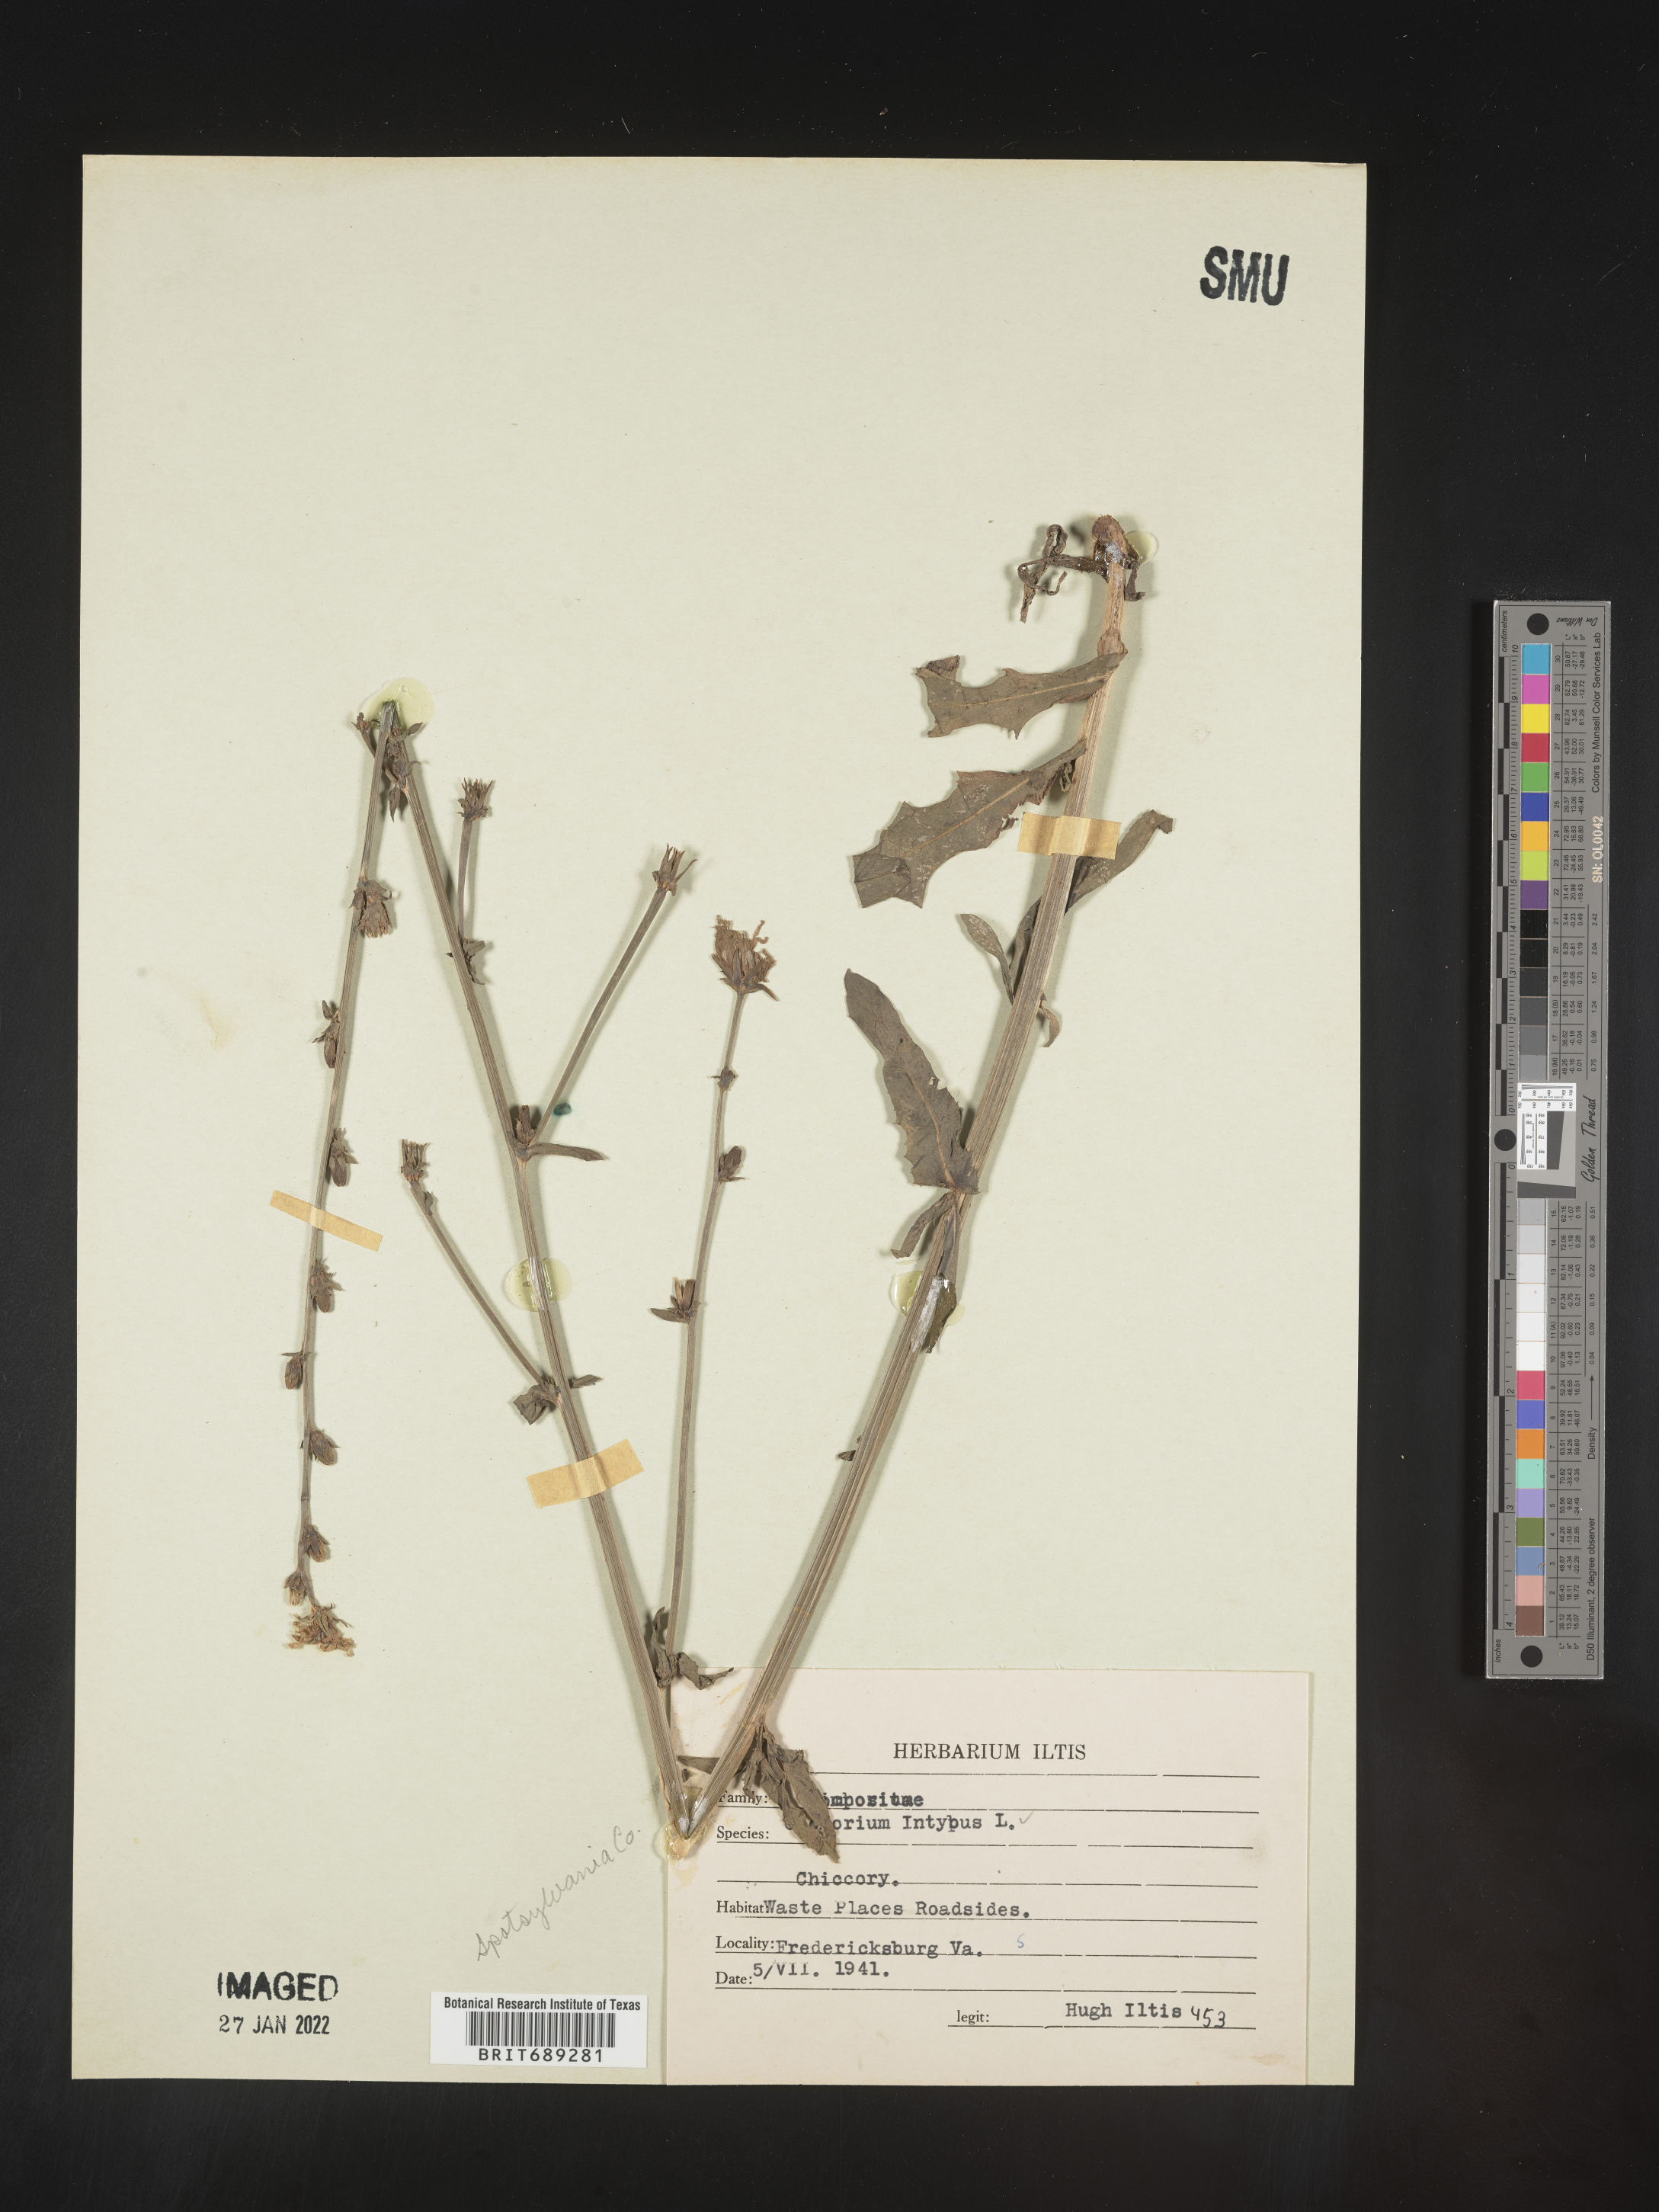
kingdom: Plantae
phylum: Tracheophyta
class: Magnoliopsida
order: Asterales
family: Asteraceae
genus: Cichorium
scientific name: Cichorium intybus
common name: Chicory
